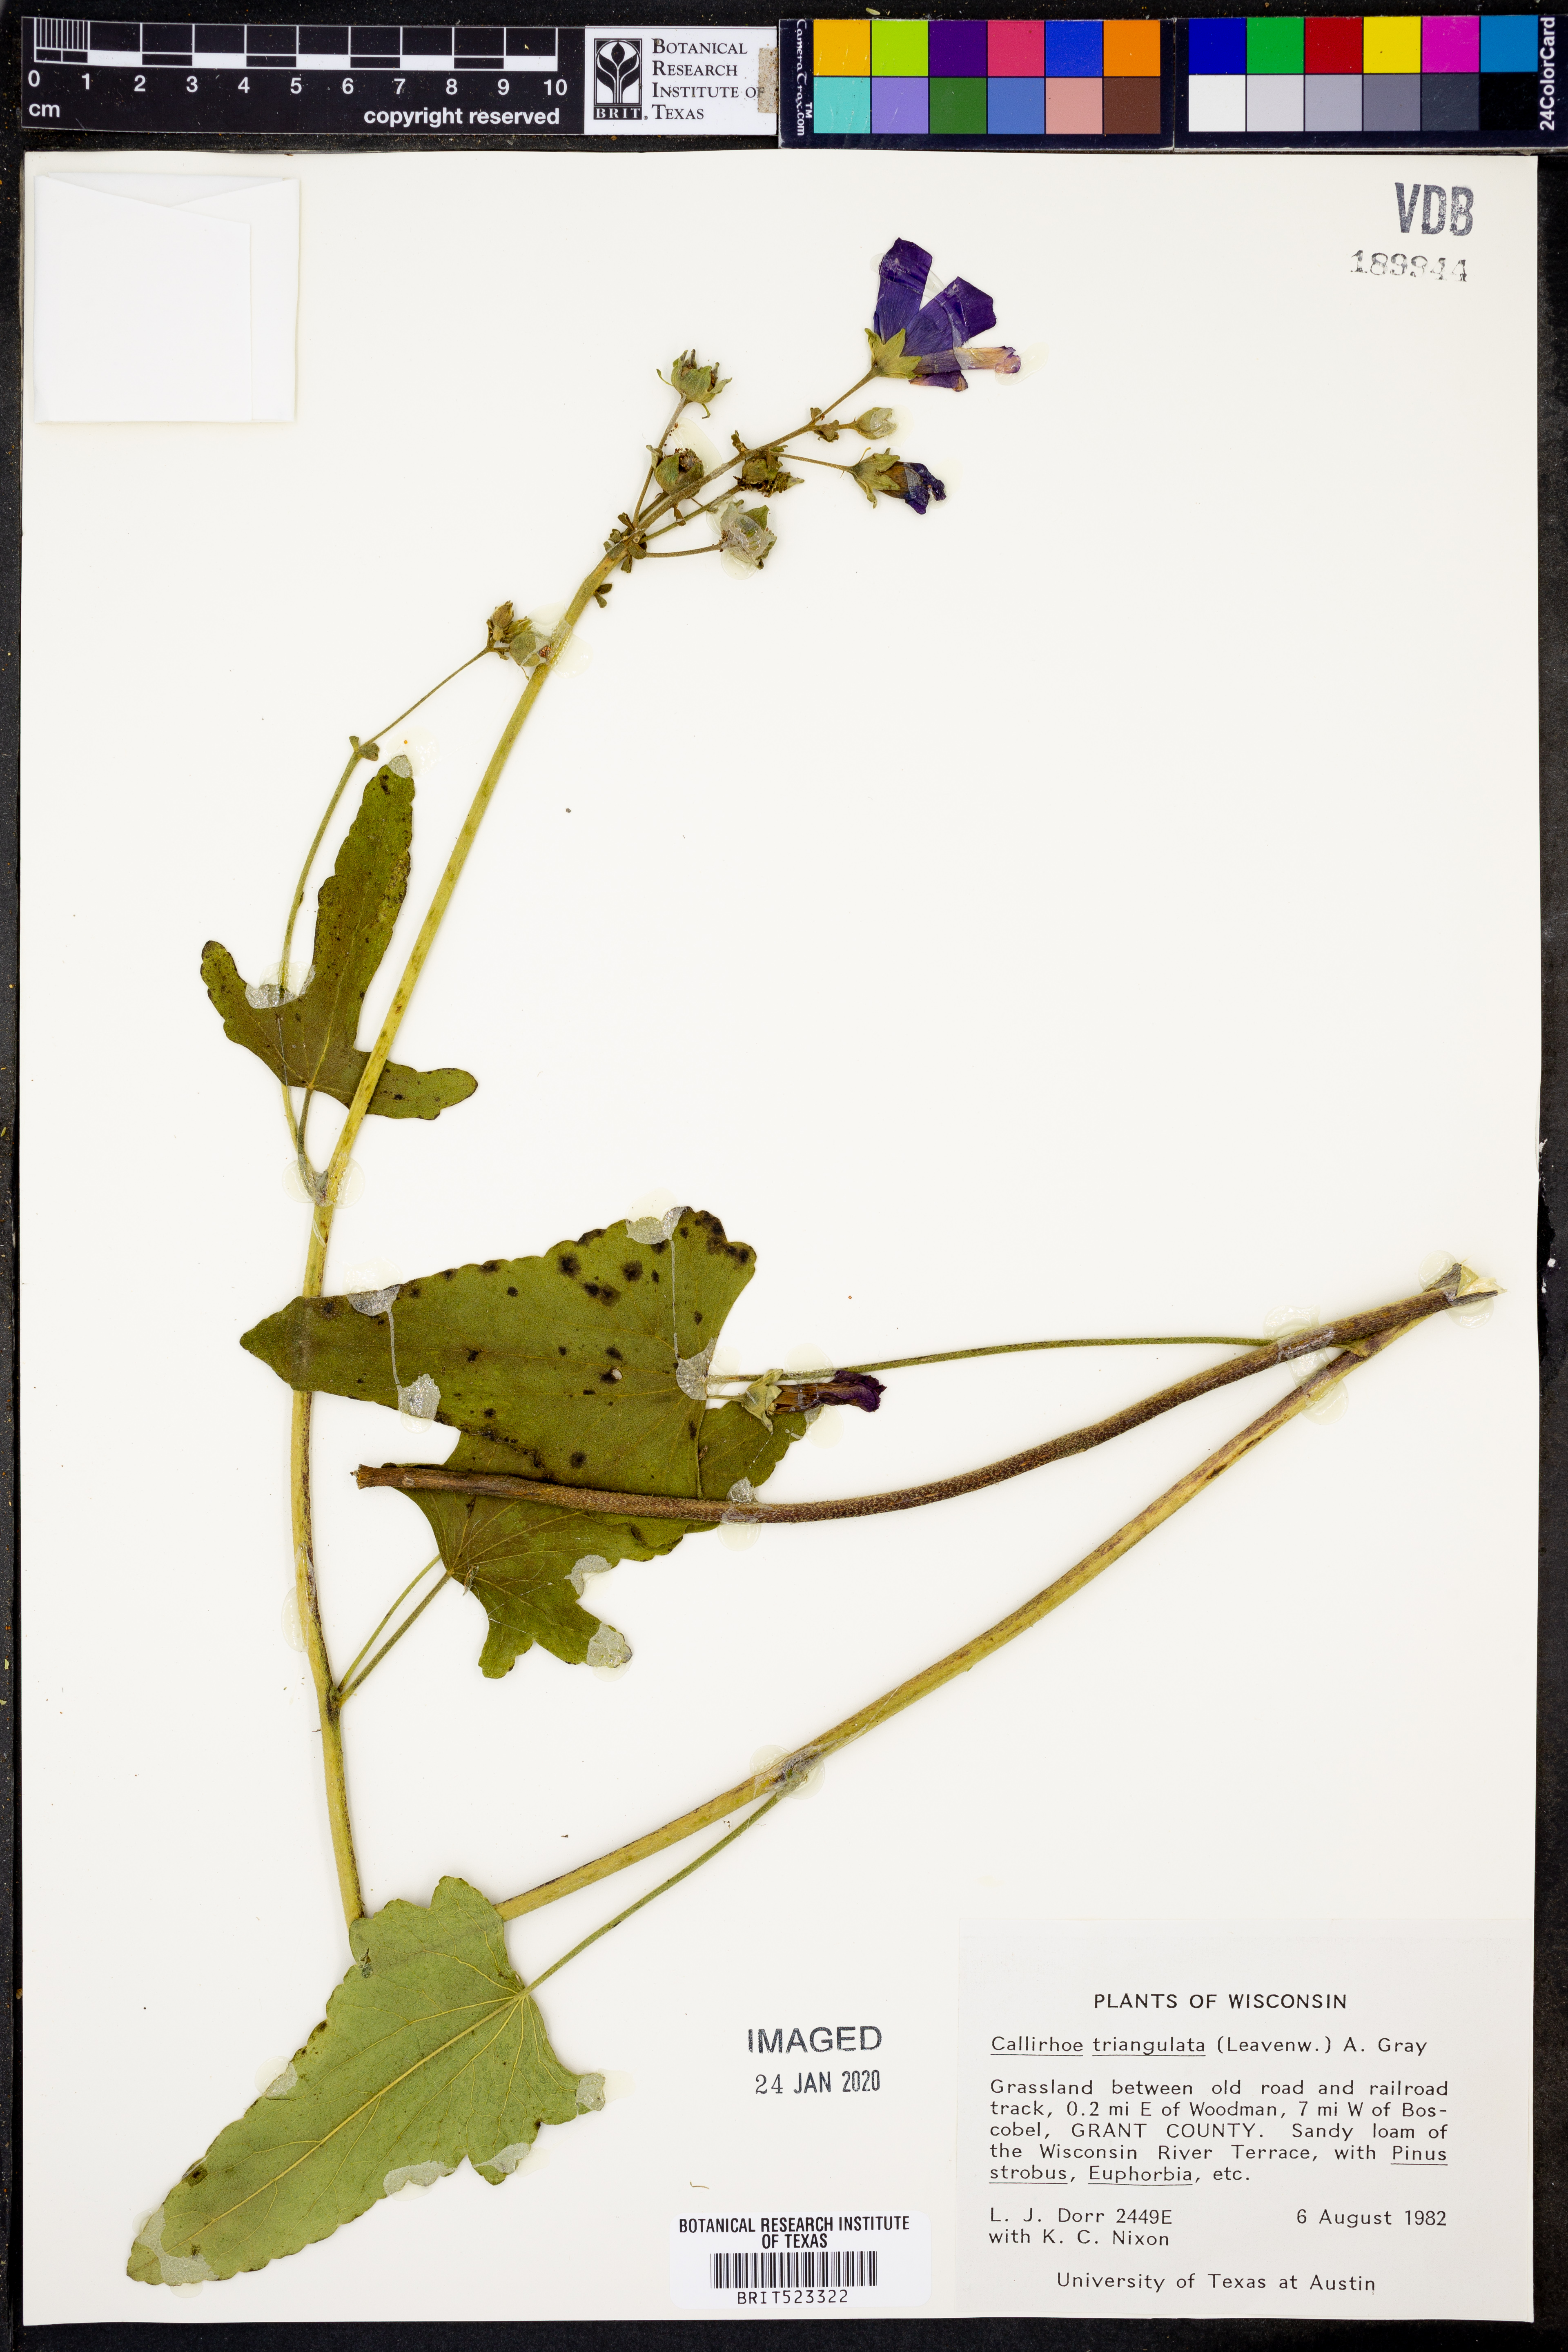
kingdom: Plantae
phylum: Tracheophyta
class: Magnoliopsida
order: Malvales
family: Malvaceae
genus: Callirhoe
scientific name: Callirhoe triangulata
